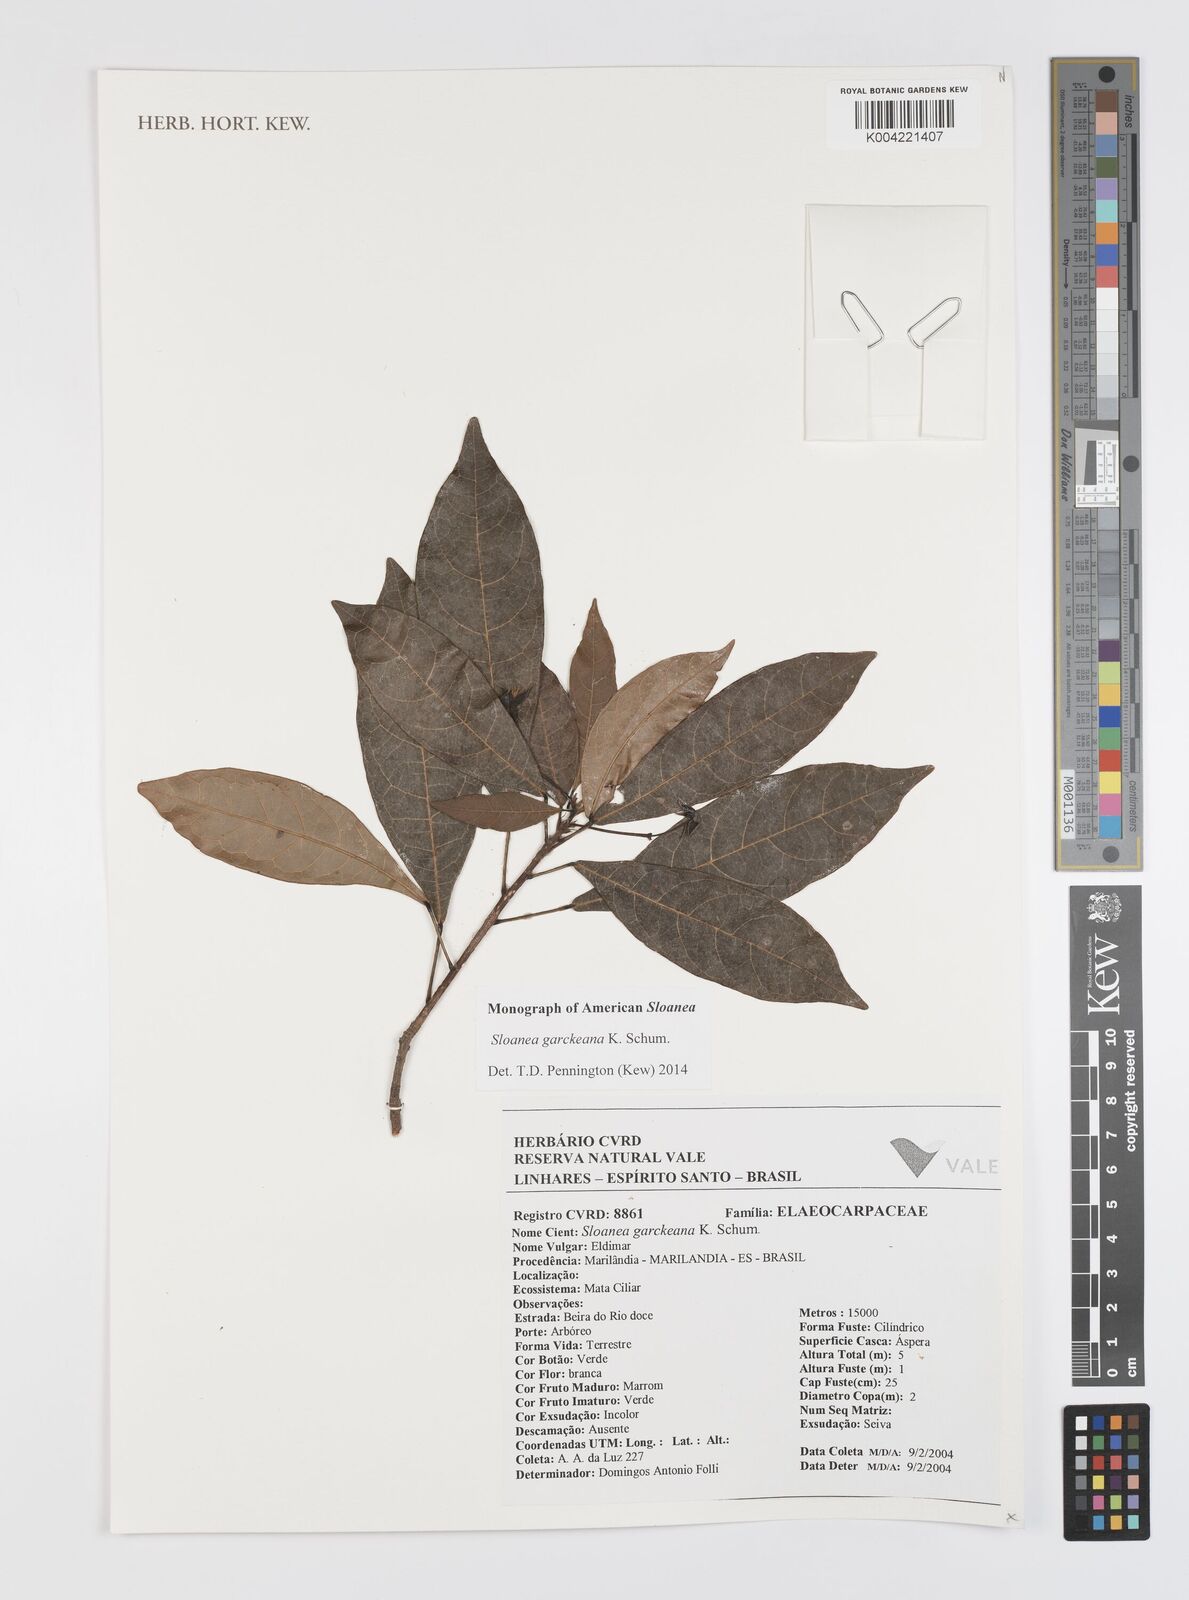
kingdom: Plantae
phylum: Tracheophyta
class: Magnoliopsida
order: Oxalidales
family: Elaeocarpaceae
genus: Sloanea
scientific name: Sloanea garckeana
